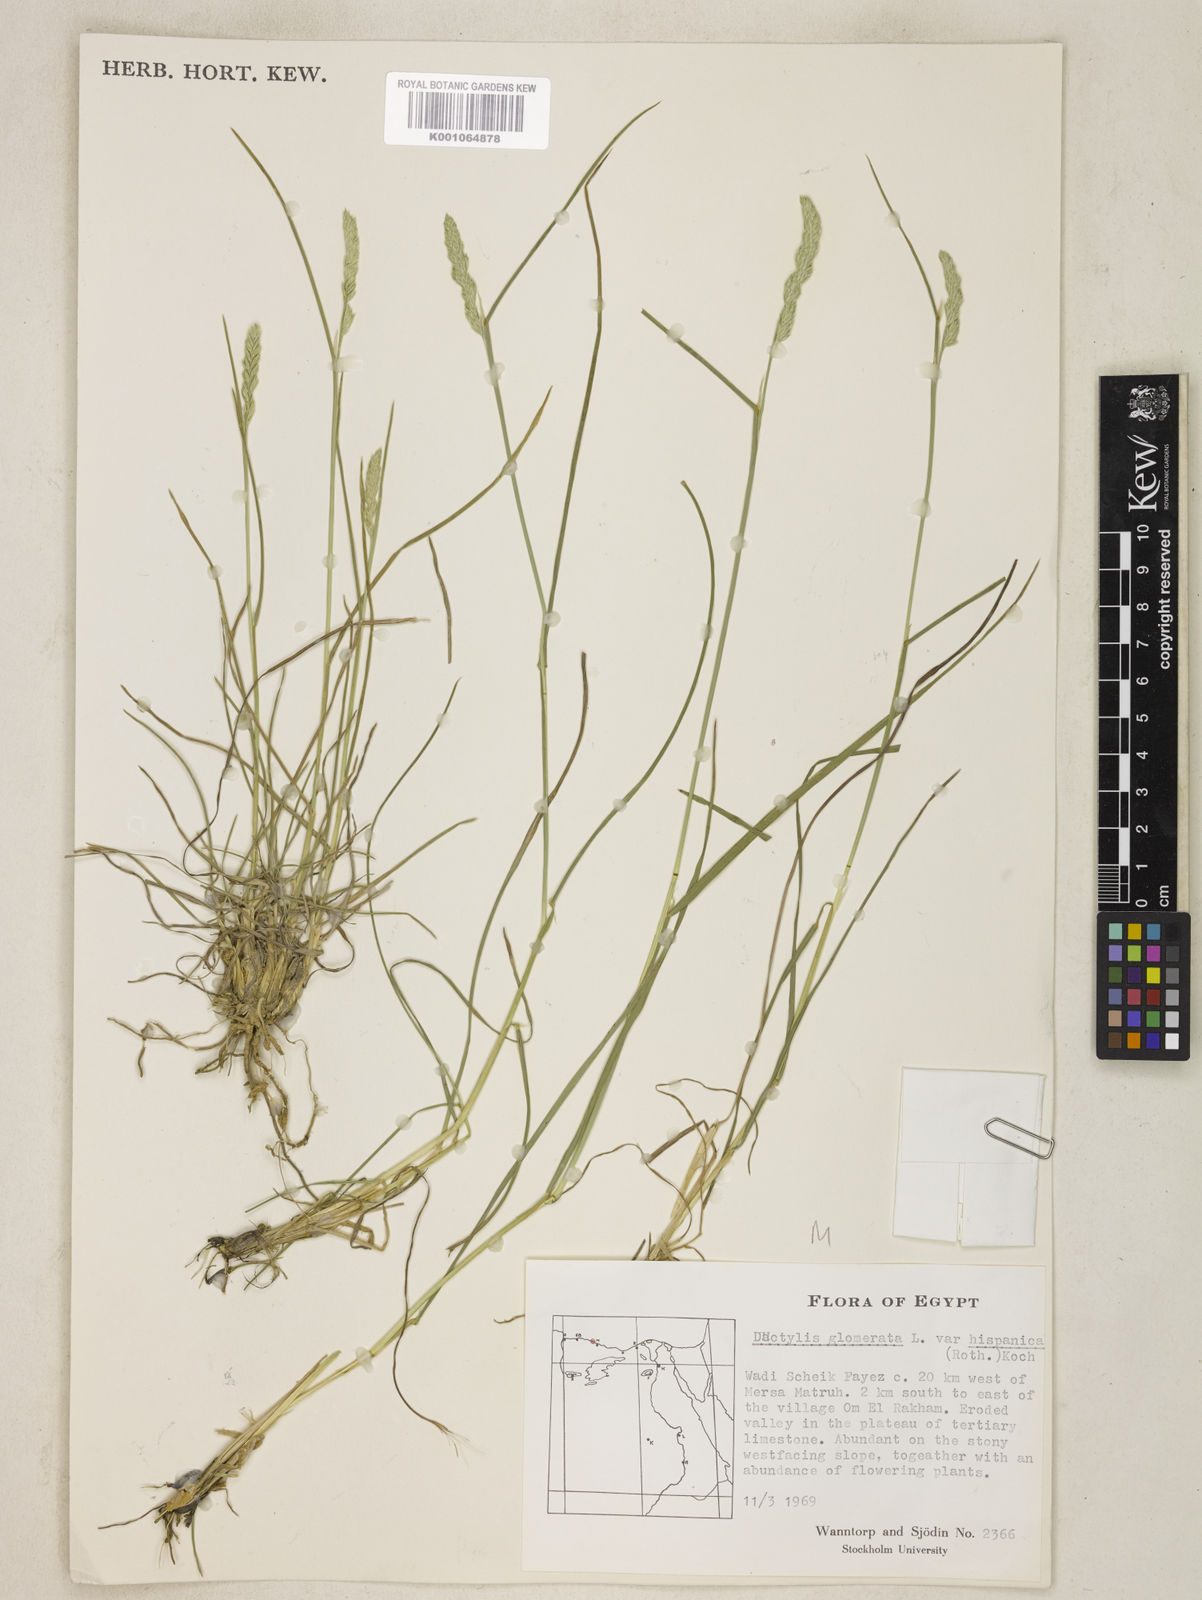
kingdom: Plantae
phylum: Tracheophyta
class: Liliopsida
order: Poales
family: Poaceae
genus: Dactylis
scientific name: Dactylis glomerata
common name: Orchardgrass
